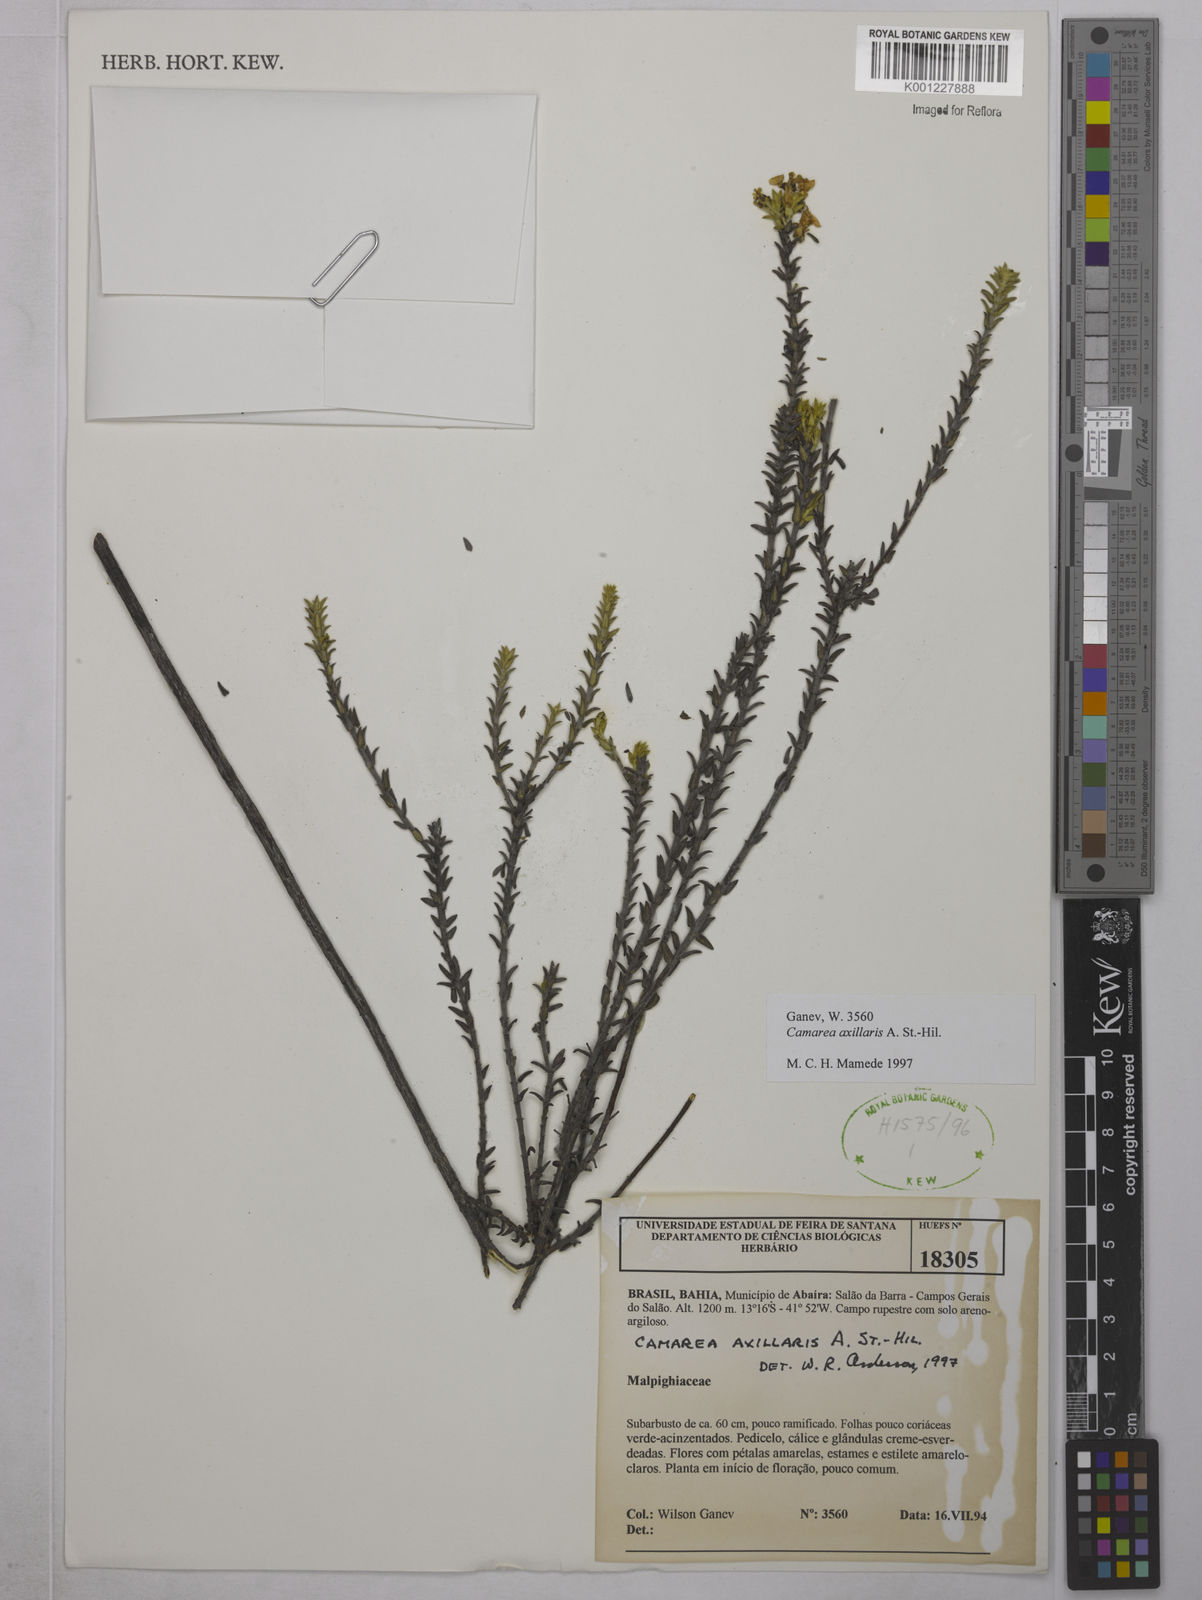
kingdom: Plantae
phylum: Tracheophyta
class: Magnoliopsida
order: Malpighiales
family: Malpighiaceae
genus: Camarea
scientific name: Camarea axillaris
